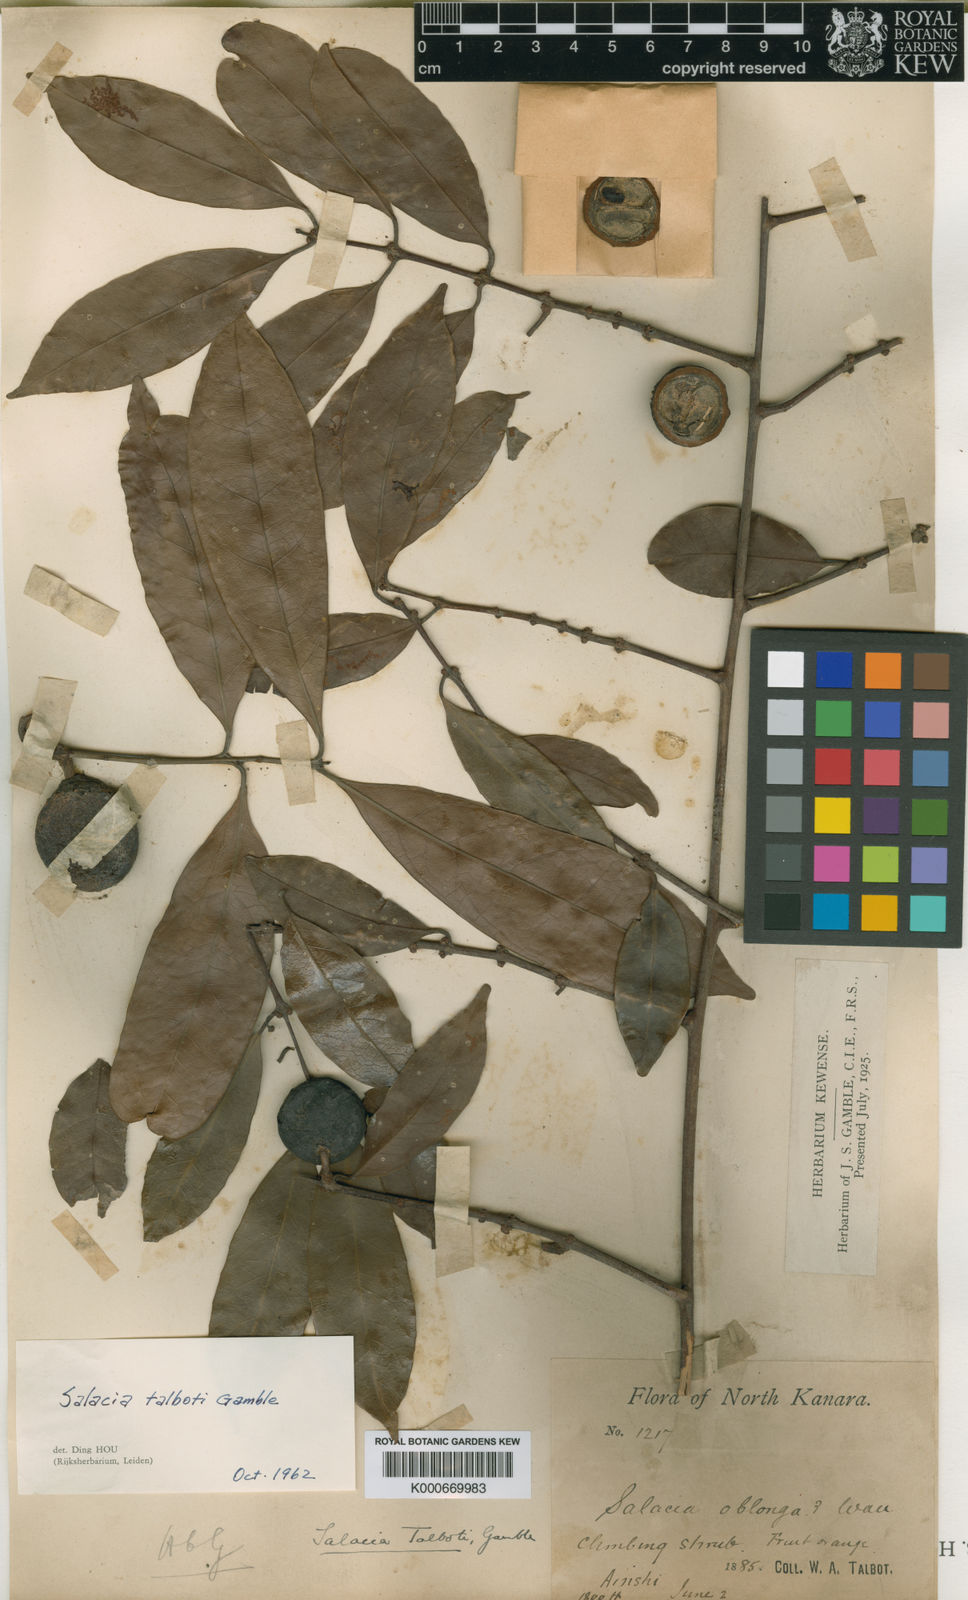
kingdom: Plantae
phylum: Tracheophyta
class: Magnoliopsida
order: Celastrales
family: Celastraceae
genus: Salacia
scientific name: Salacia gambleana
